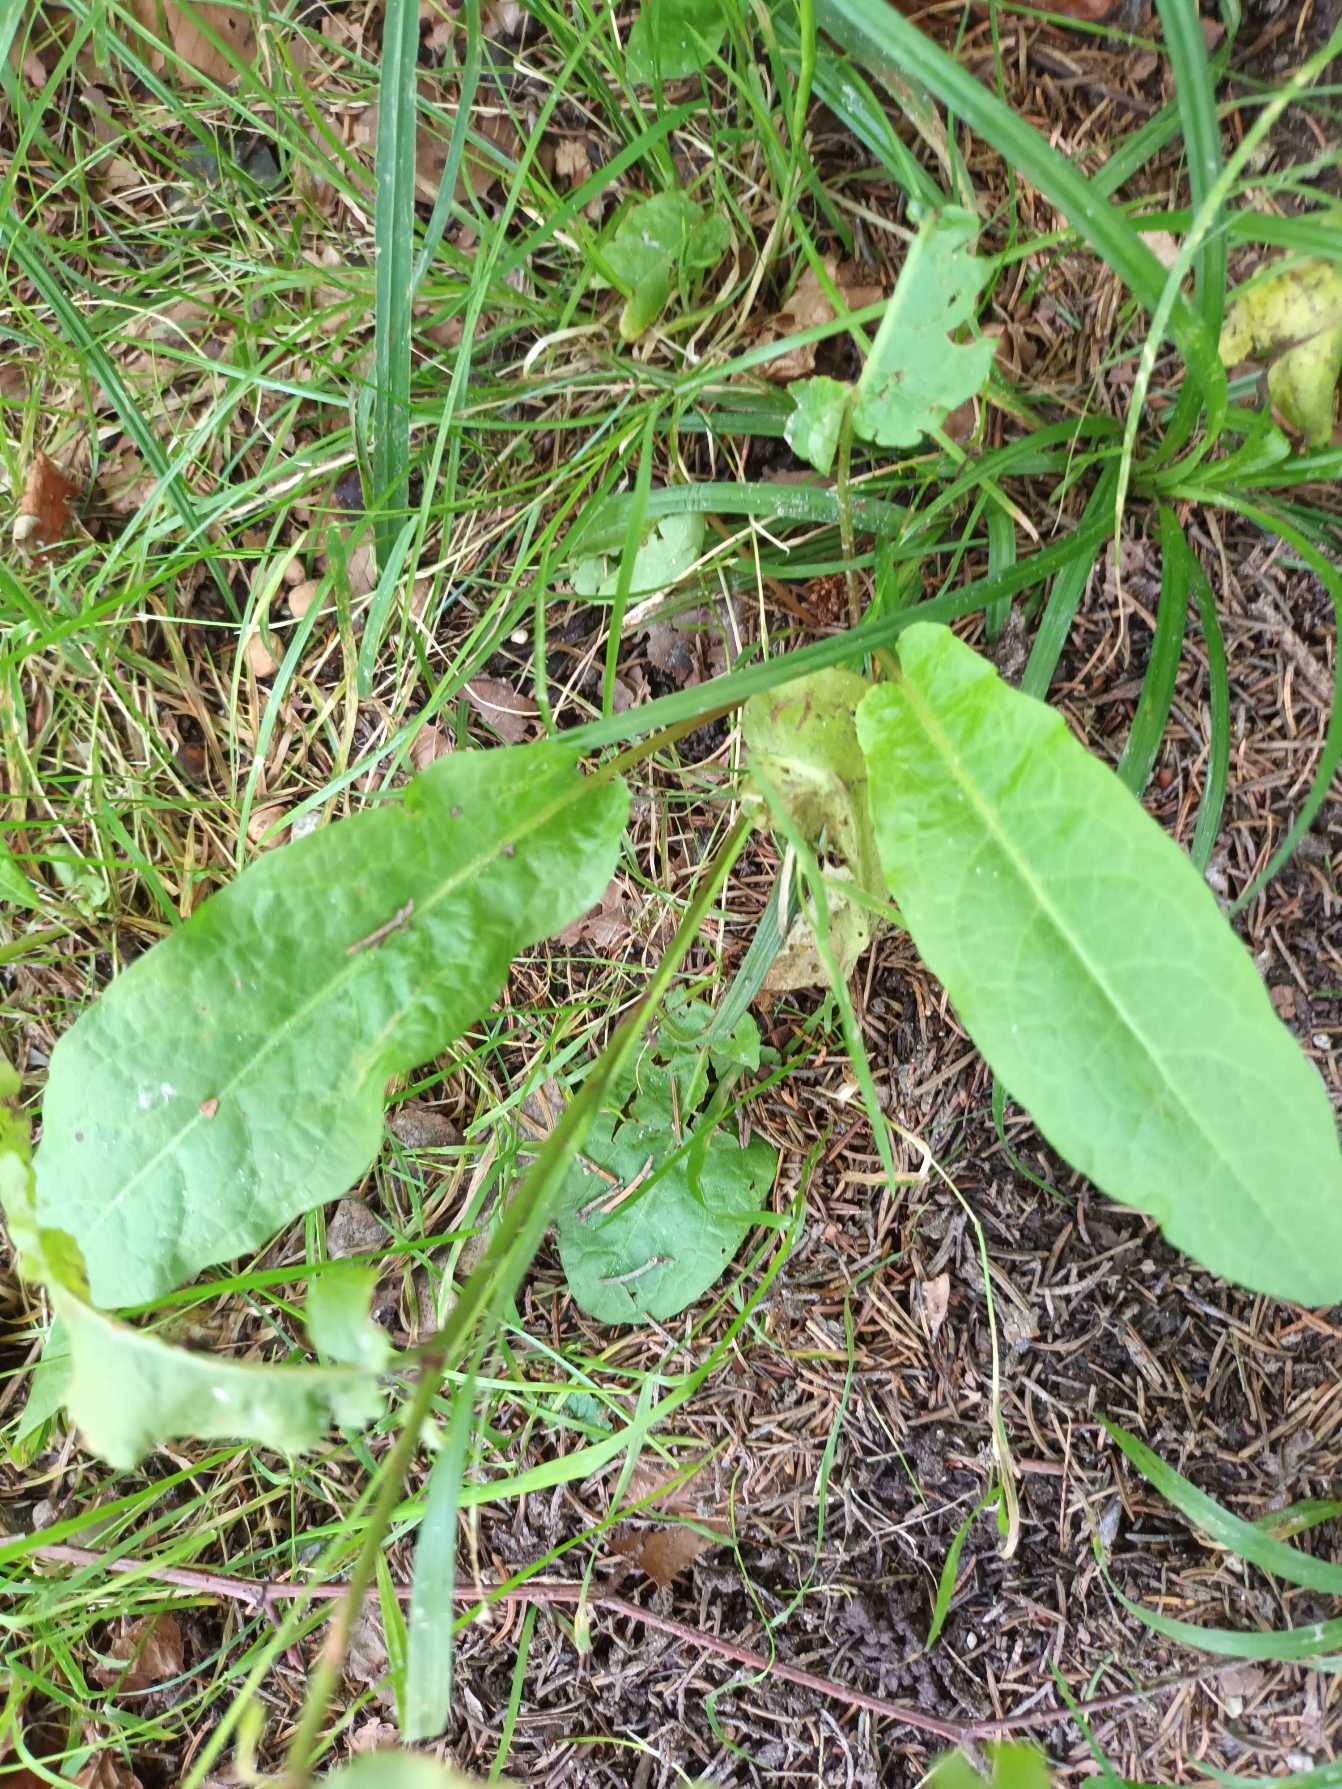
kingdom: Plantae
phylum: Tracheophyta
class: Magnoliopsida
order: Caryophyllales
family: Polygonaceae
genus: Rumex
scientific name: Rumex sanguineus
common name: Skov-skræppe
